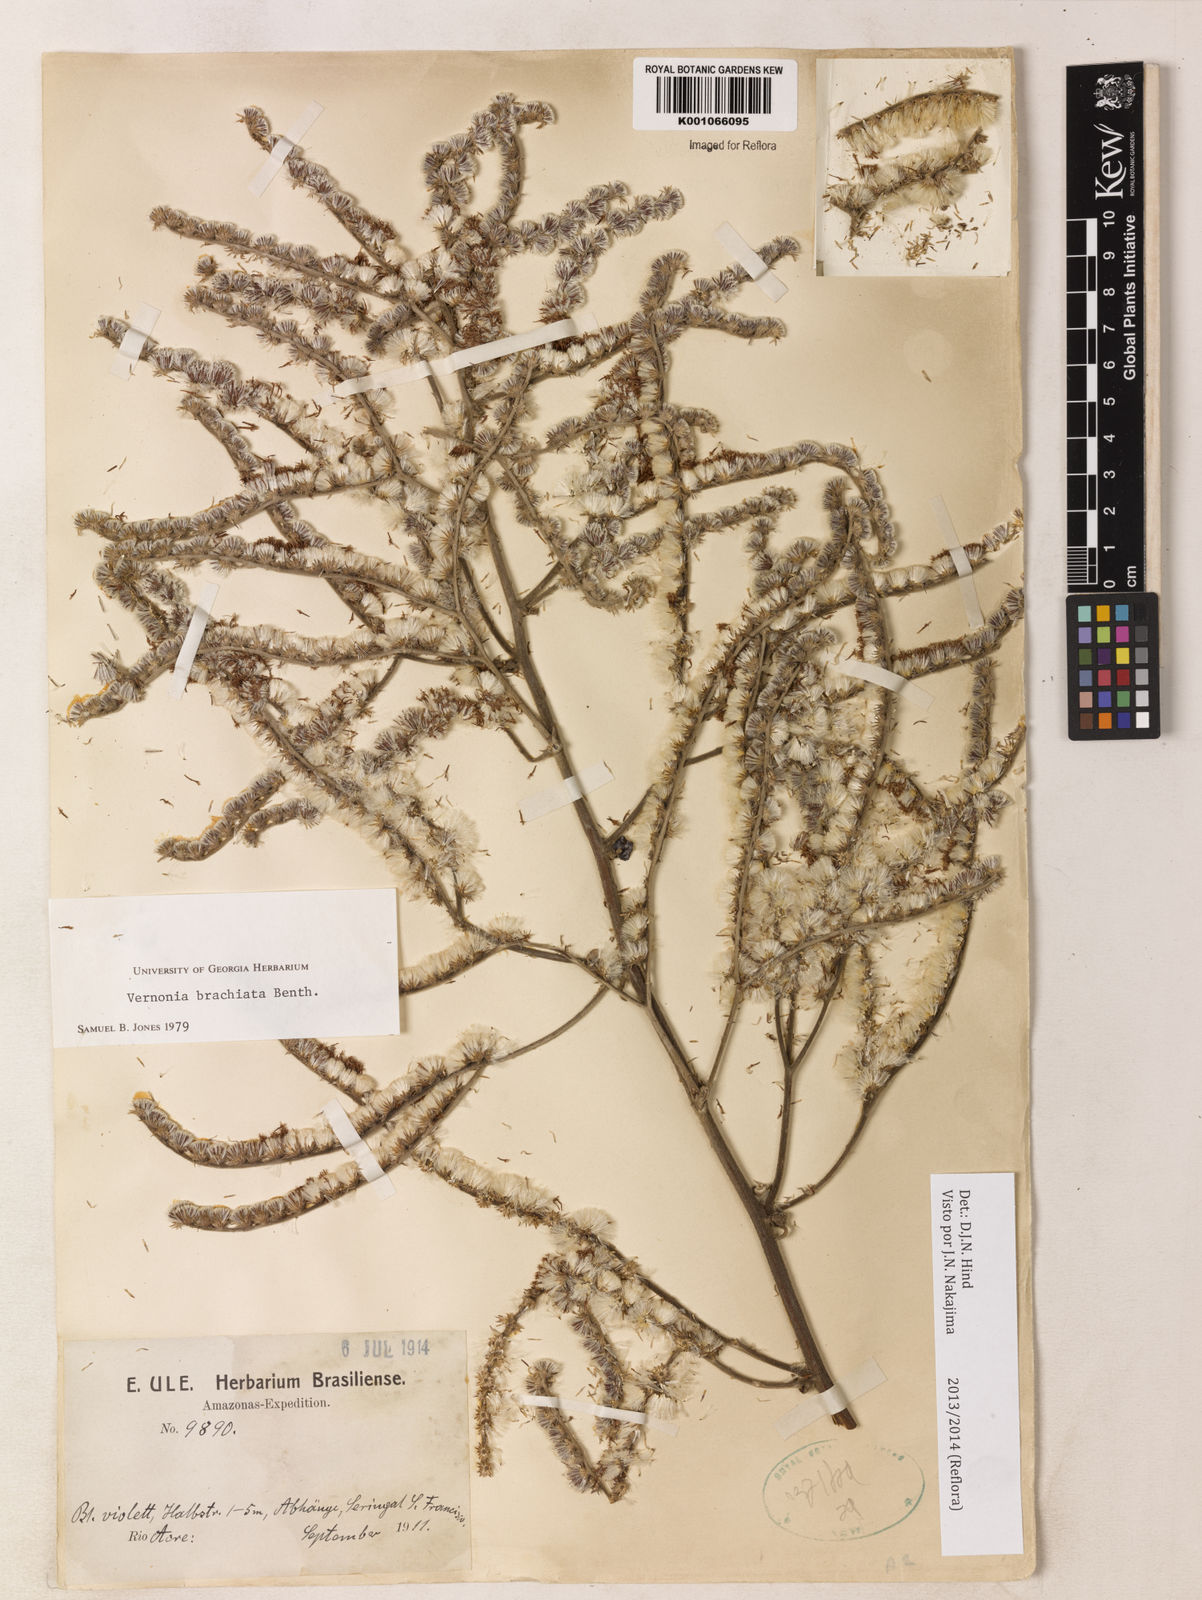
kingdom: Plantae
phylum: Tracheophyta
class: Magnoliopsida
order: Asterales
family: Asteraceae
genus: Vernonia
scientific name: Vernonia
